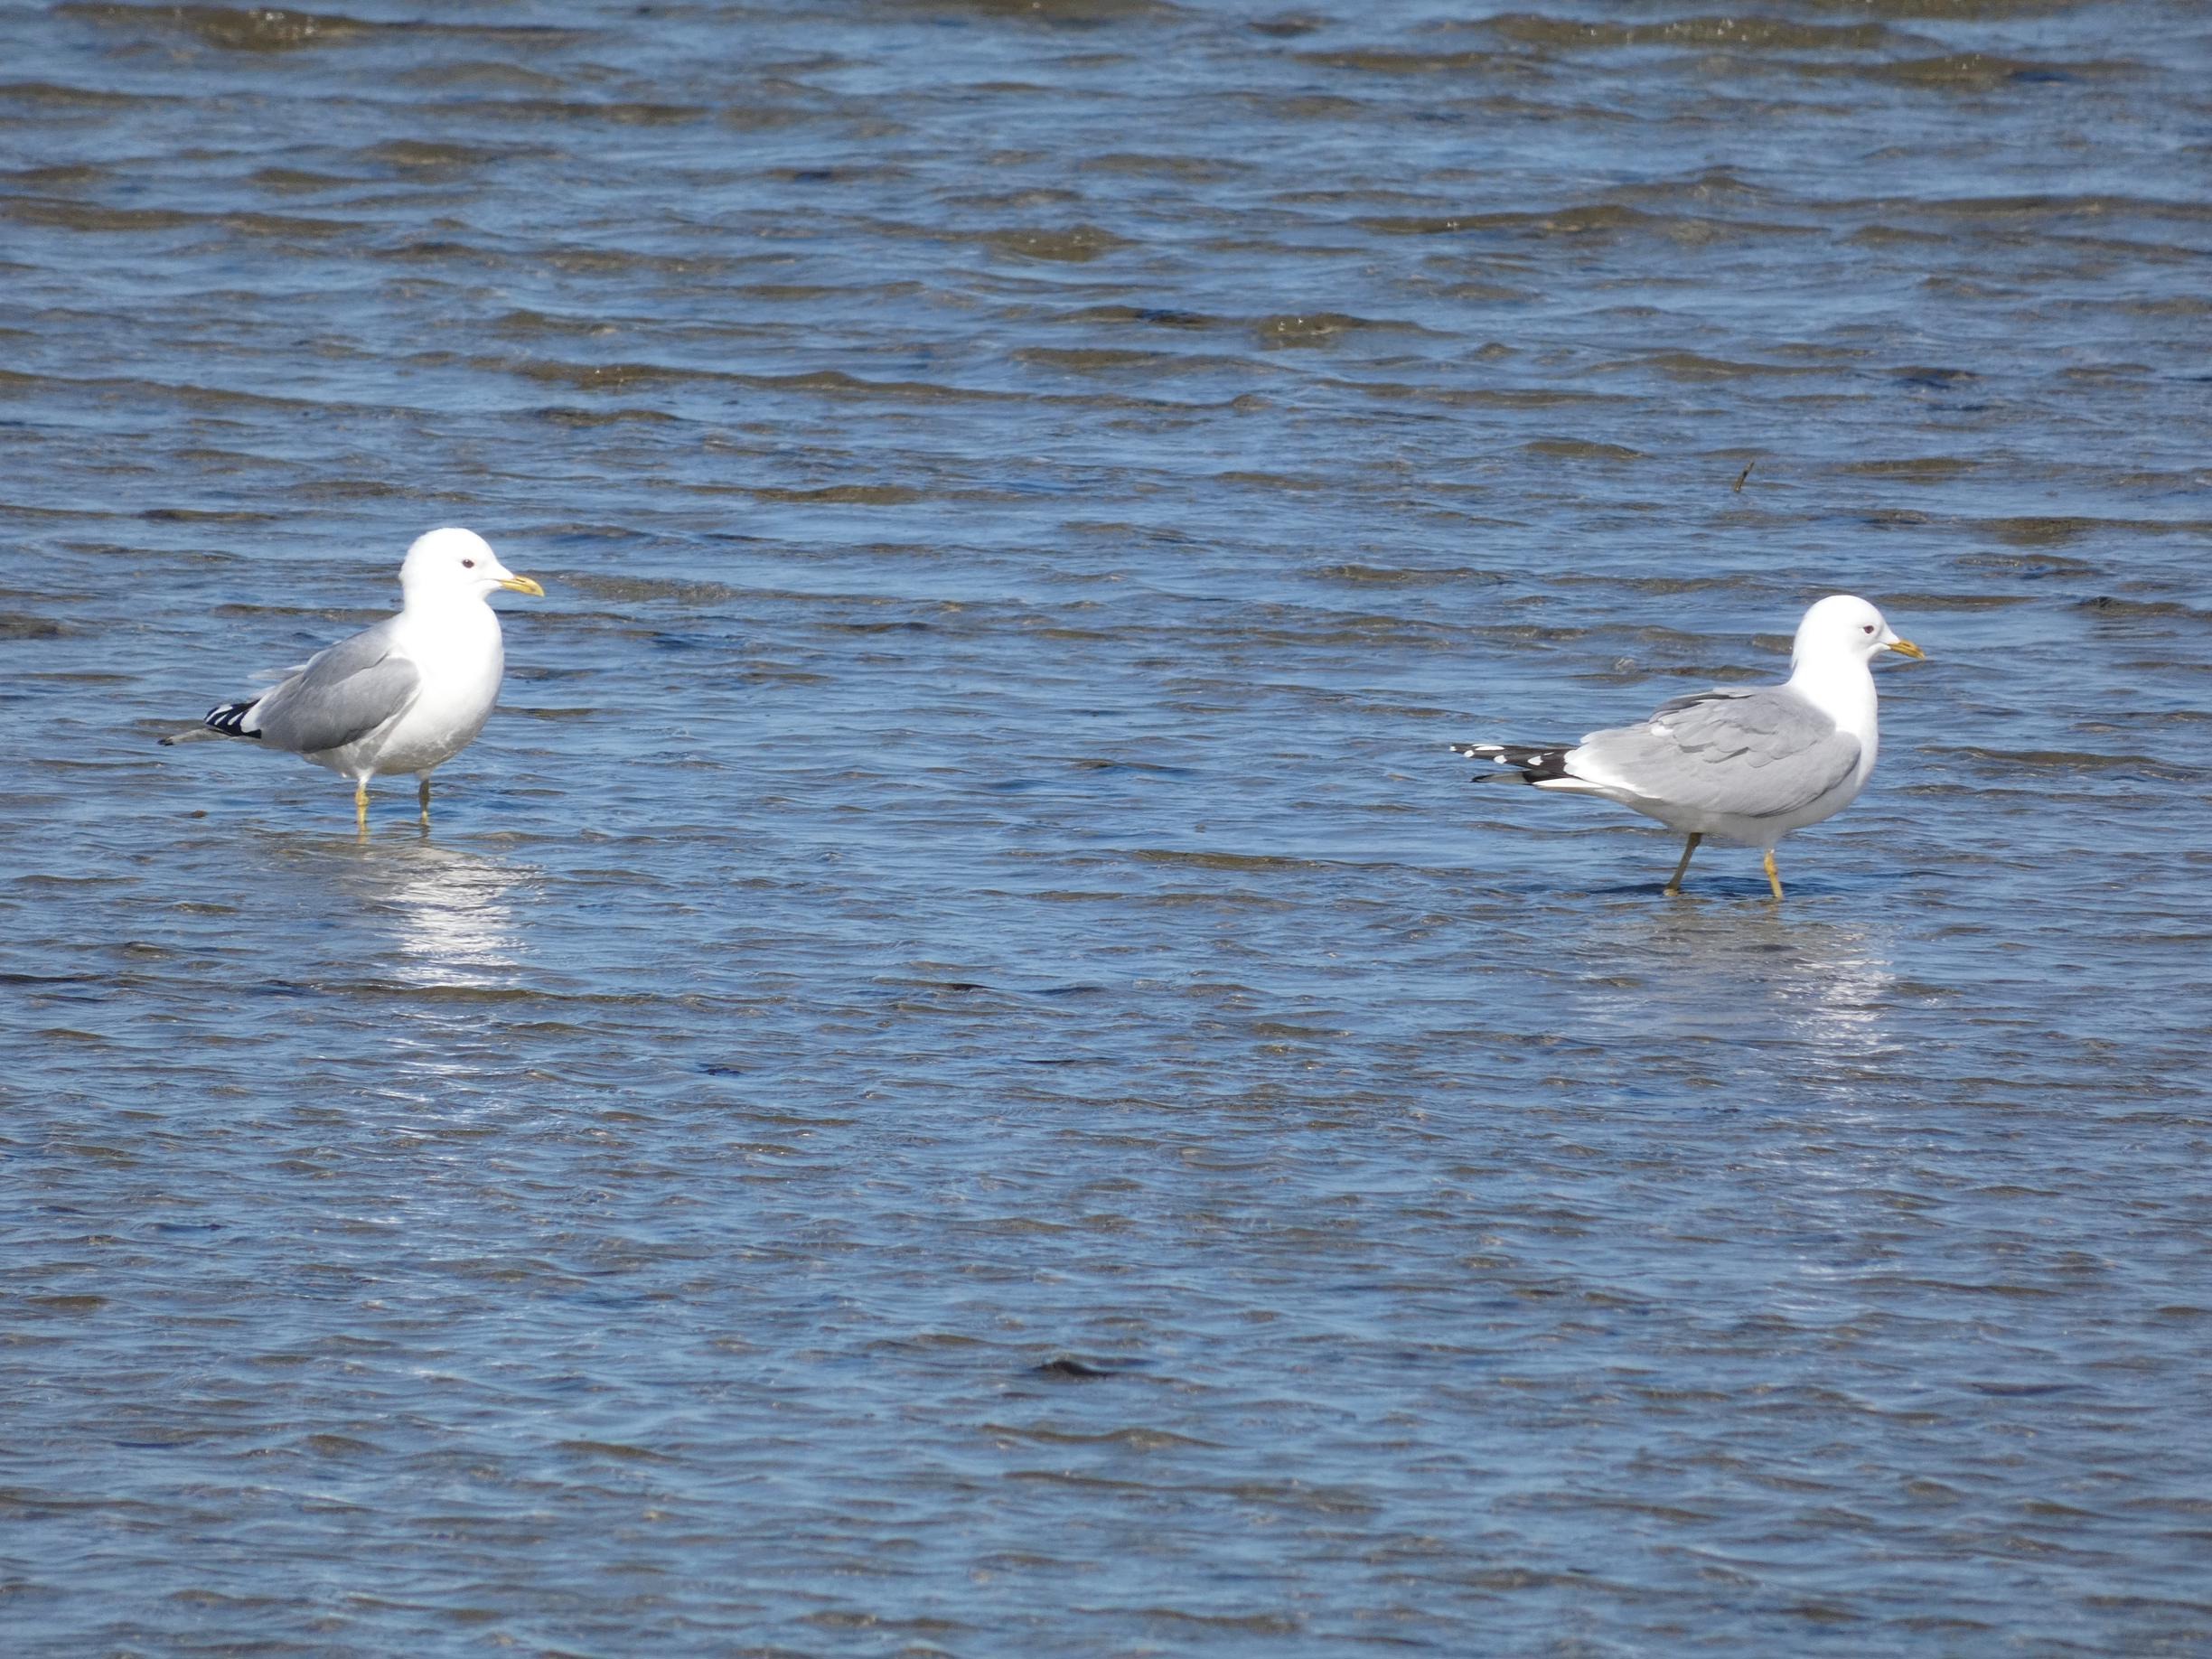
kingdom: Animalia
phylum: Chordata
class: Aves
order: Charadriiformes
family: Laridae
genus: Larus
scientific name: Larus canus
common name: Stormmåge
